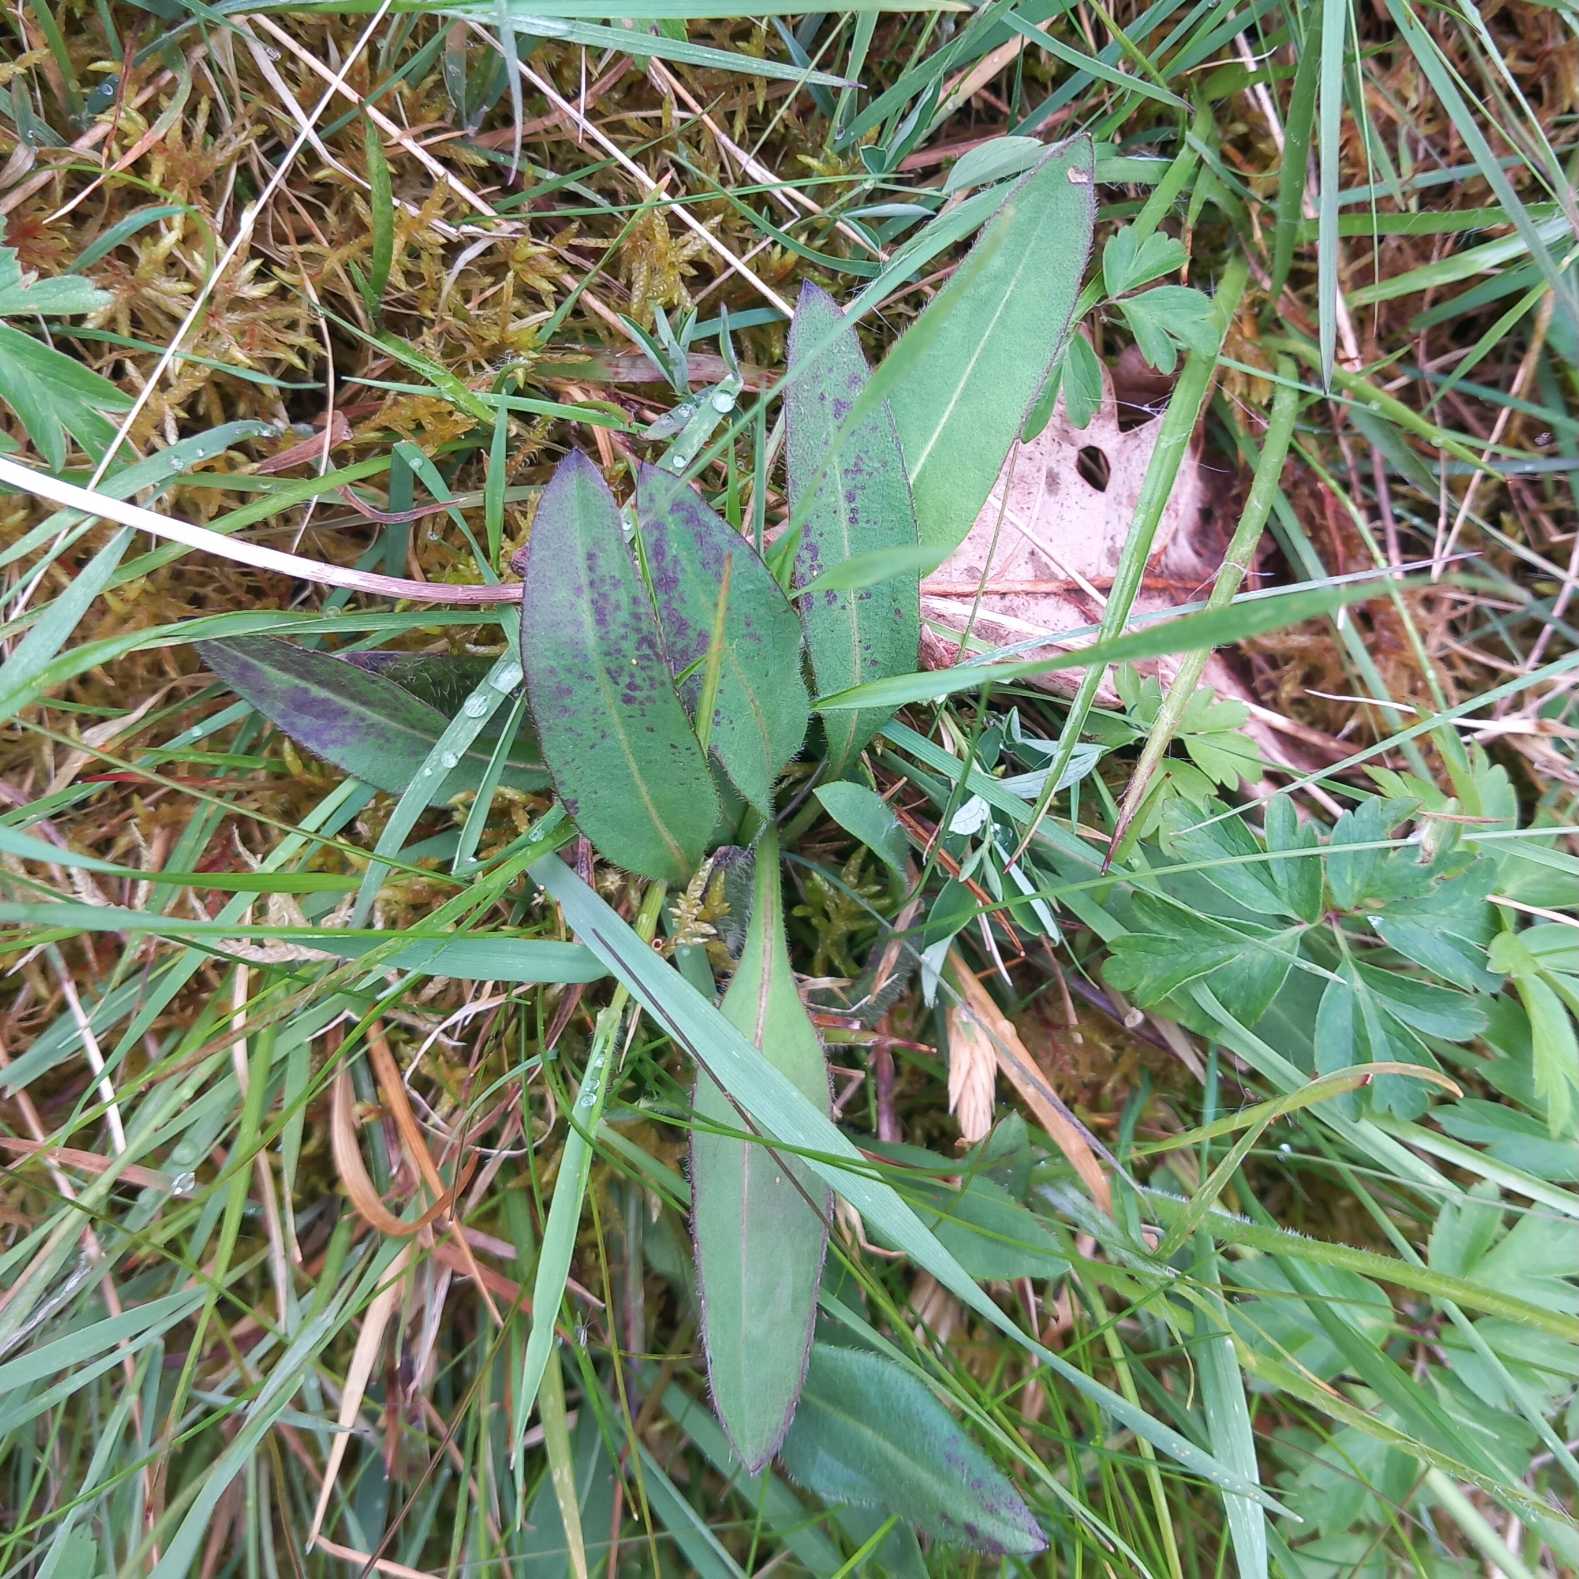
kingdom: Plantae
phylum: Tracheophyta
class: Magnoliopsida
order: Dipsacales
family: Caprifoliaceae
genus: Succisa
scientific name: Succisa pratensis
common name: Djævelsbid
